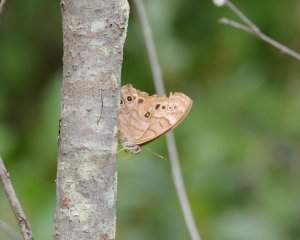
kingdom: Animalia
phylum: Arthropoda
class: Insecta
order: Lepidoptera
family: Nymphalidae
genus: Lethe
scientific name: Lethe anthedon
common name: Northern Pearly-Eye
